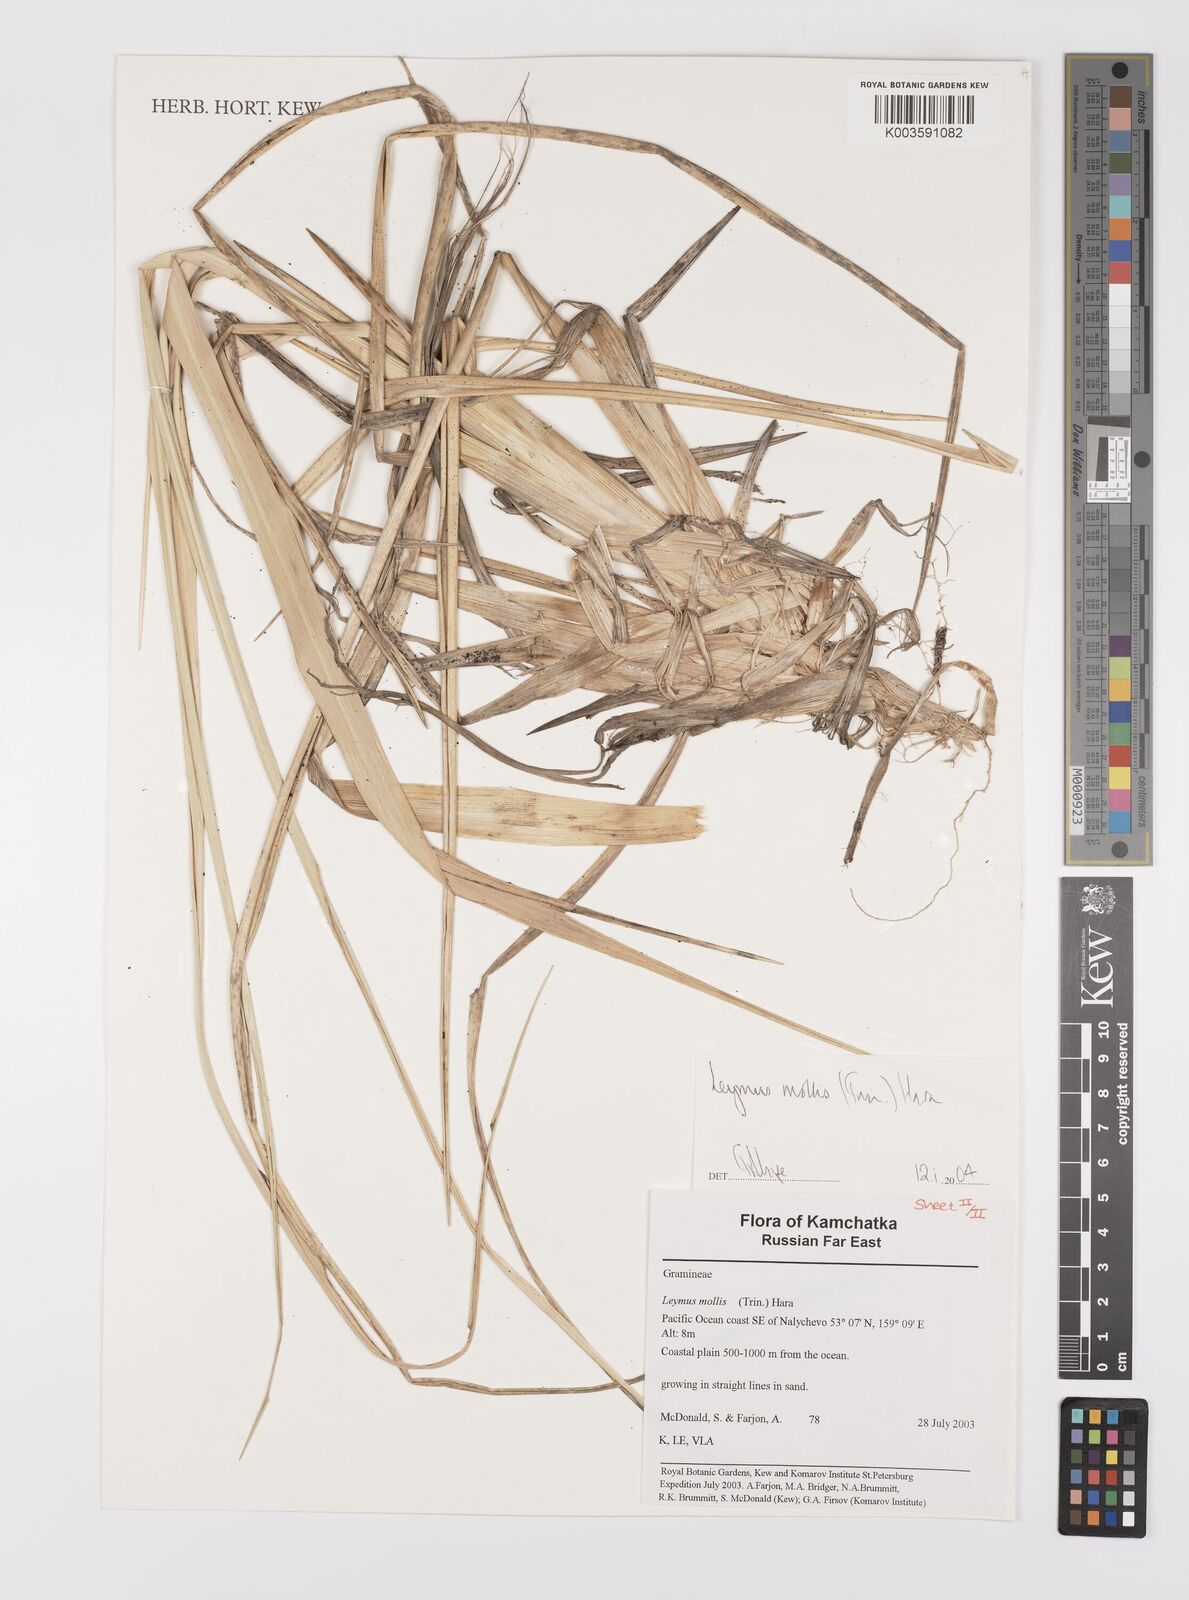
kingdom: Plantae
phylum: Tracheophyta
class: Liliopsida
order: Poales
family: Poaceae
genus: Leymus
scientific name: Leymus mollis
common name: American dune grass
